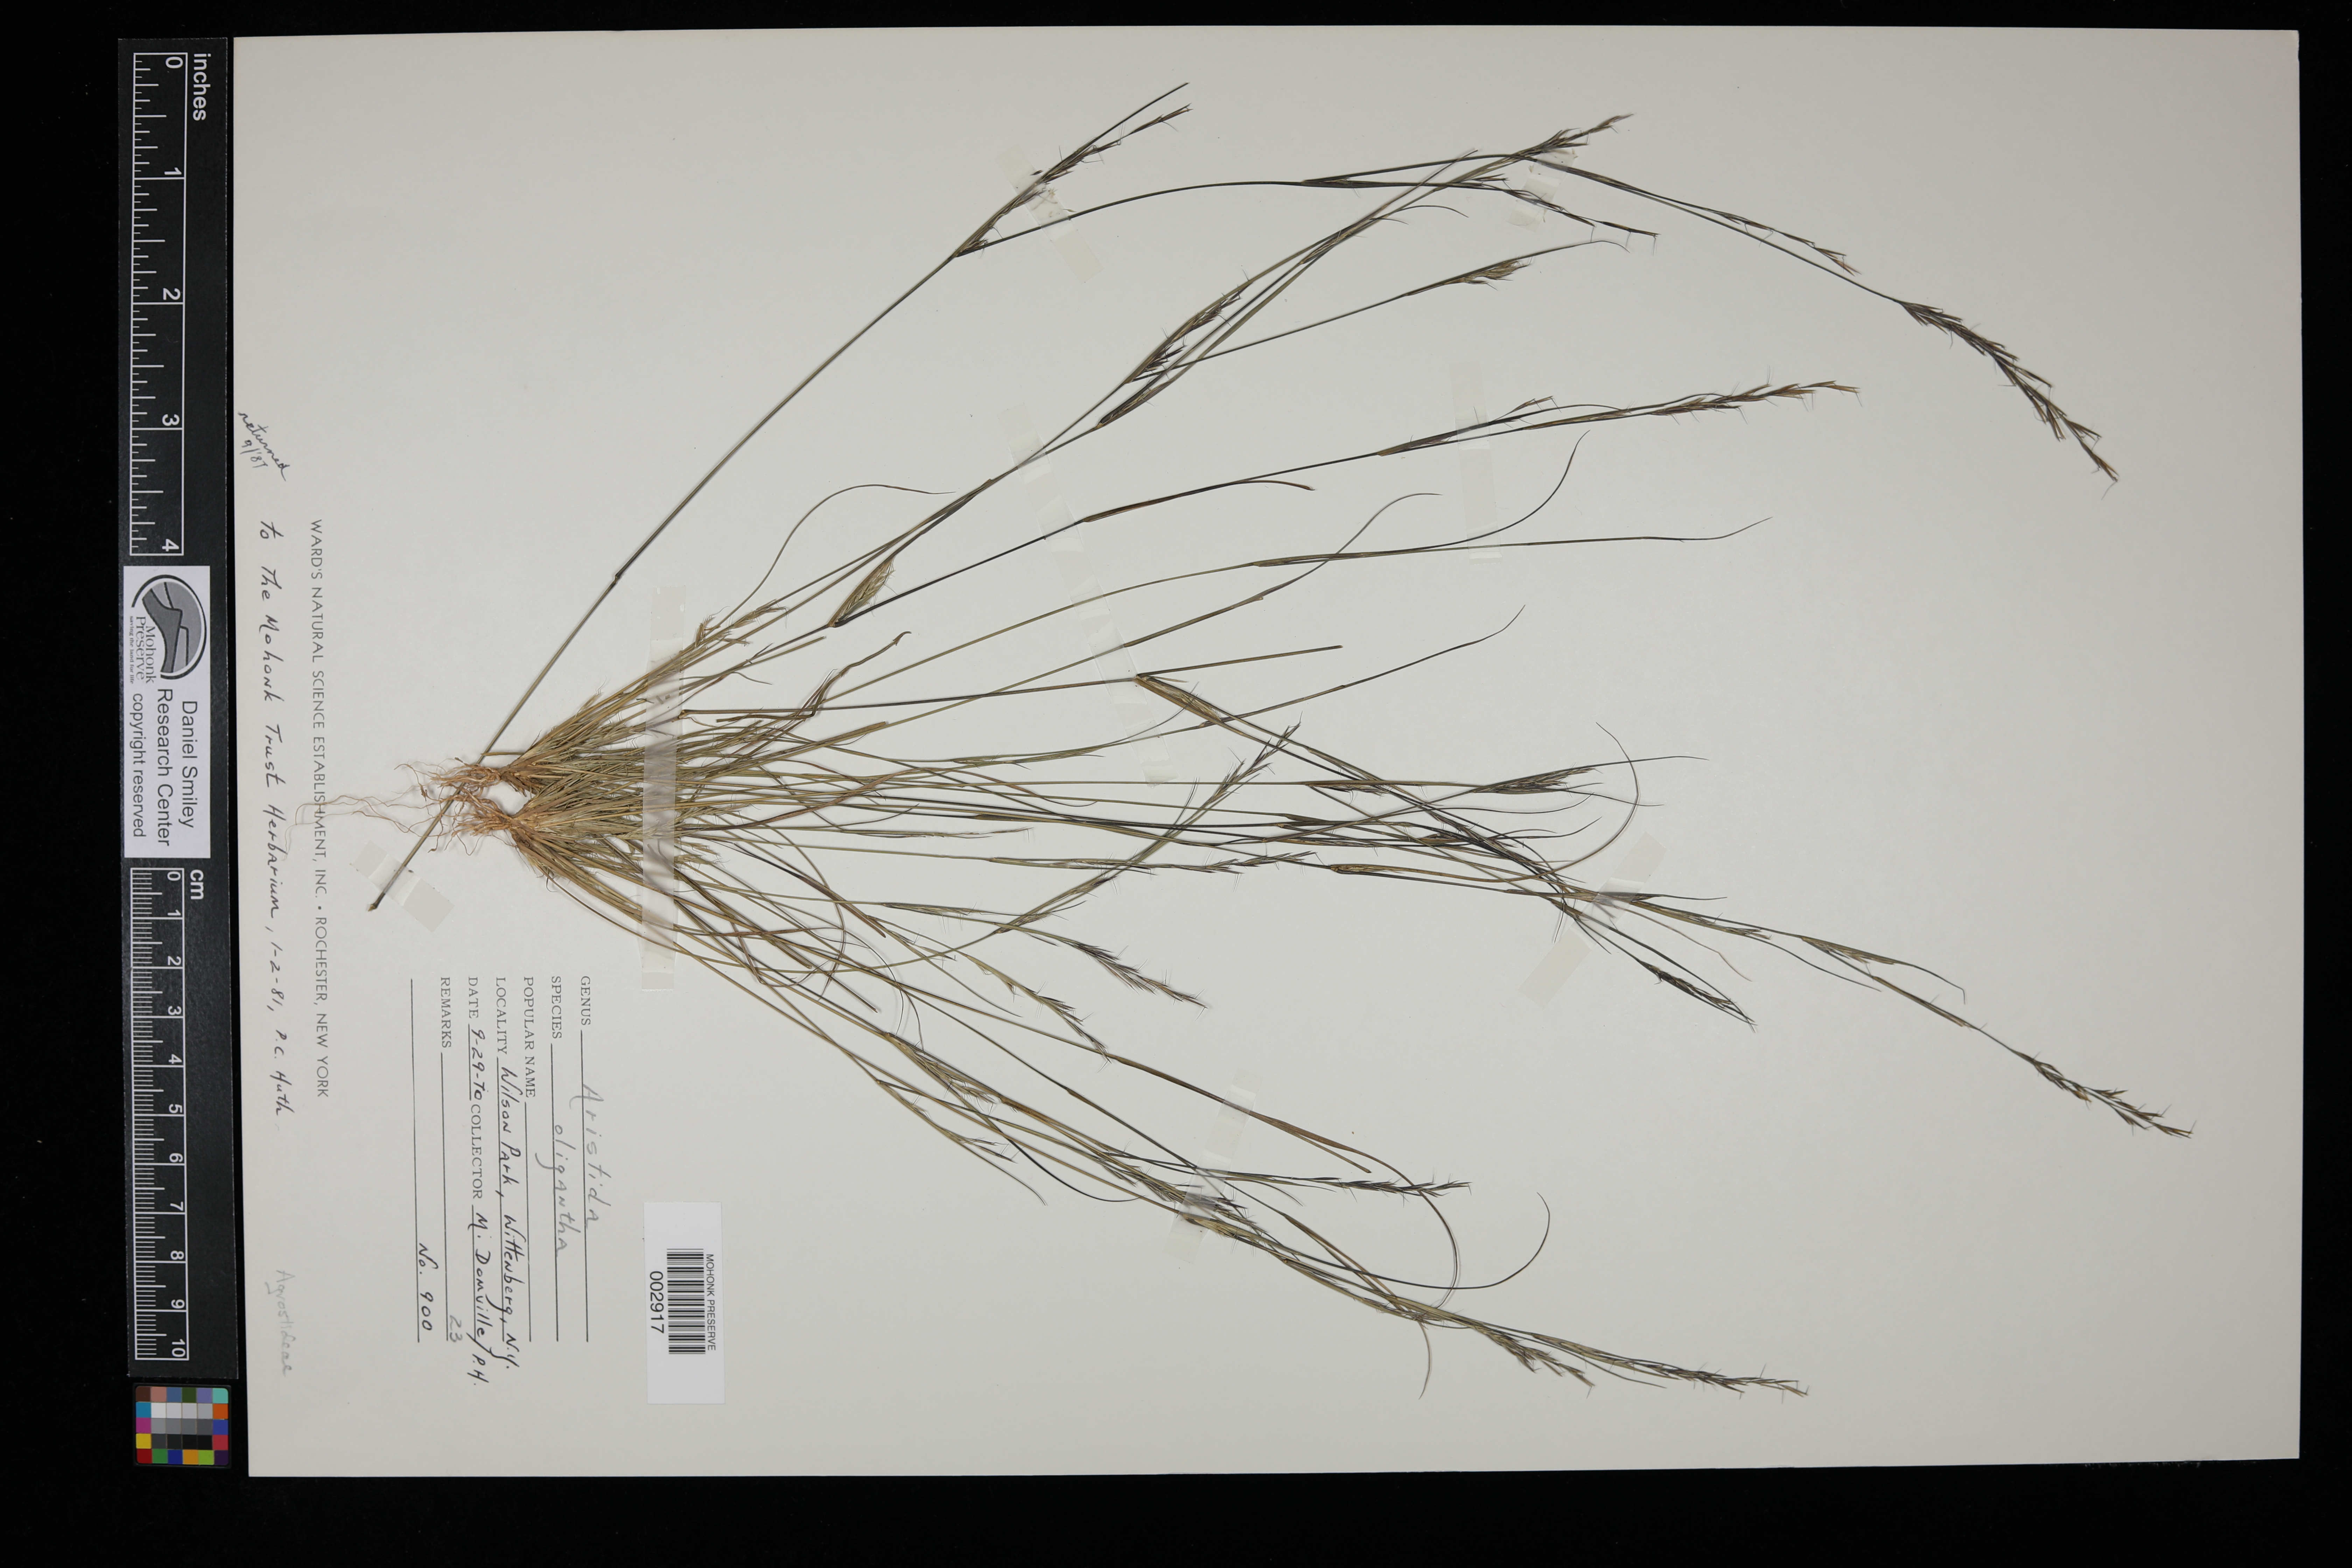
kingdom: Plantae
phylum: Tracheophyta
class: Liliopsida
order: Poales
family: Poaceae
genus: Aristida
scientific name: Aristida oligantha
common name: Few-flowered aristida
